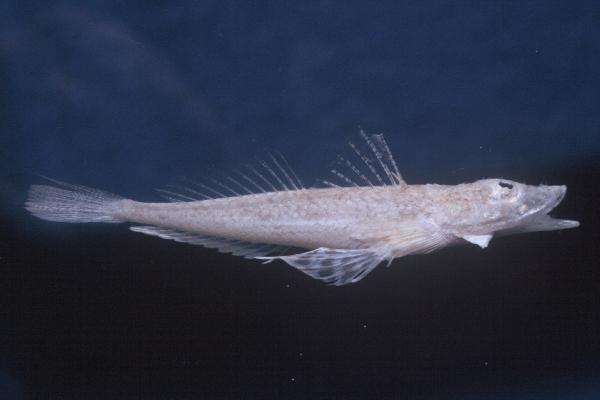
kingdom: Animalia
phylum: Chordata
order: Scorpaeniformes
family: Platycephalidae
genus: Onigocia
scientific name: Onigocia bimaculata
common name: Two-spotted flathead
